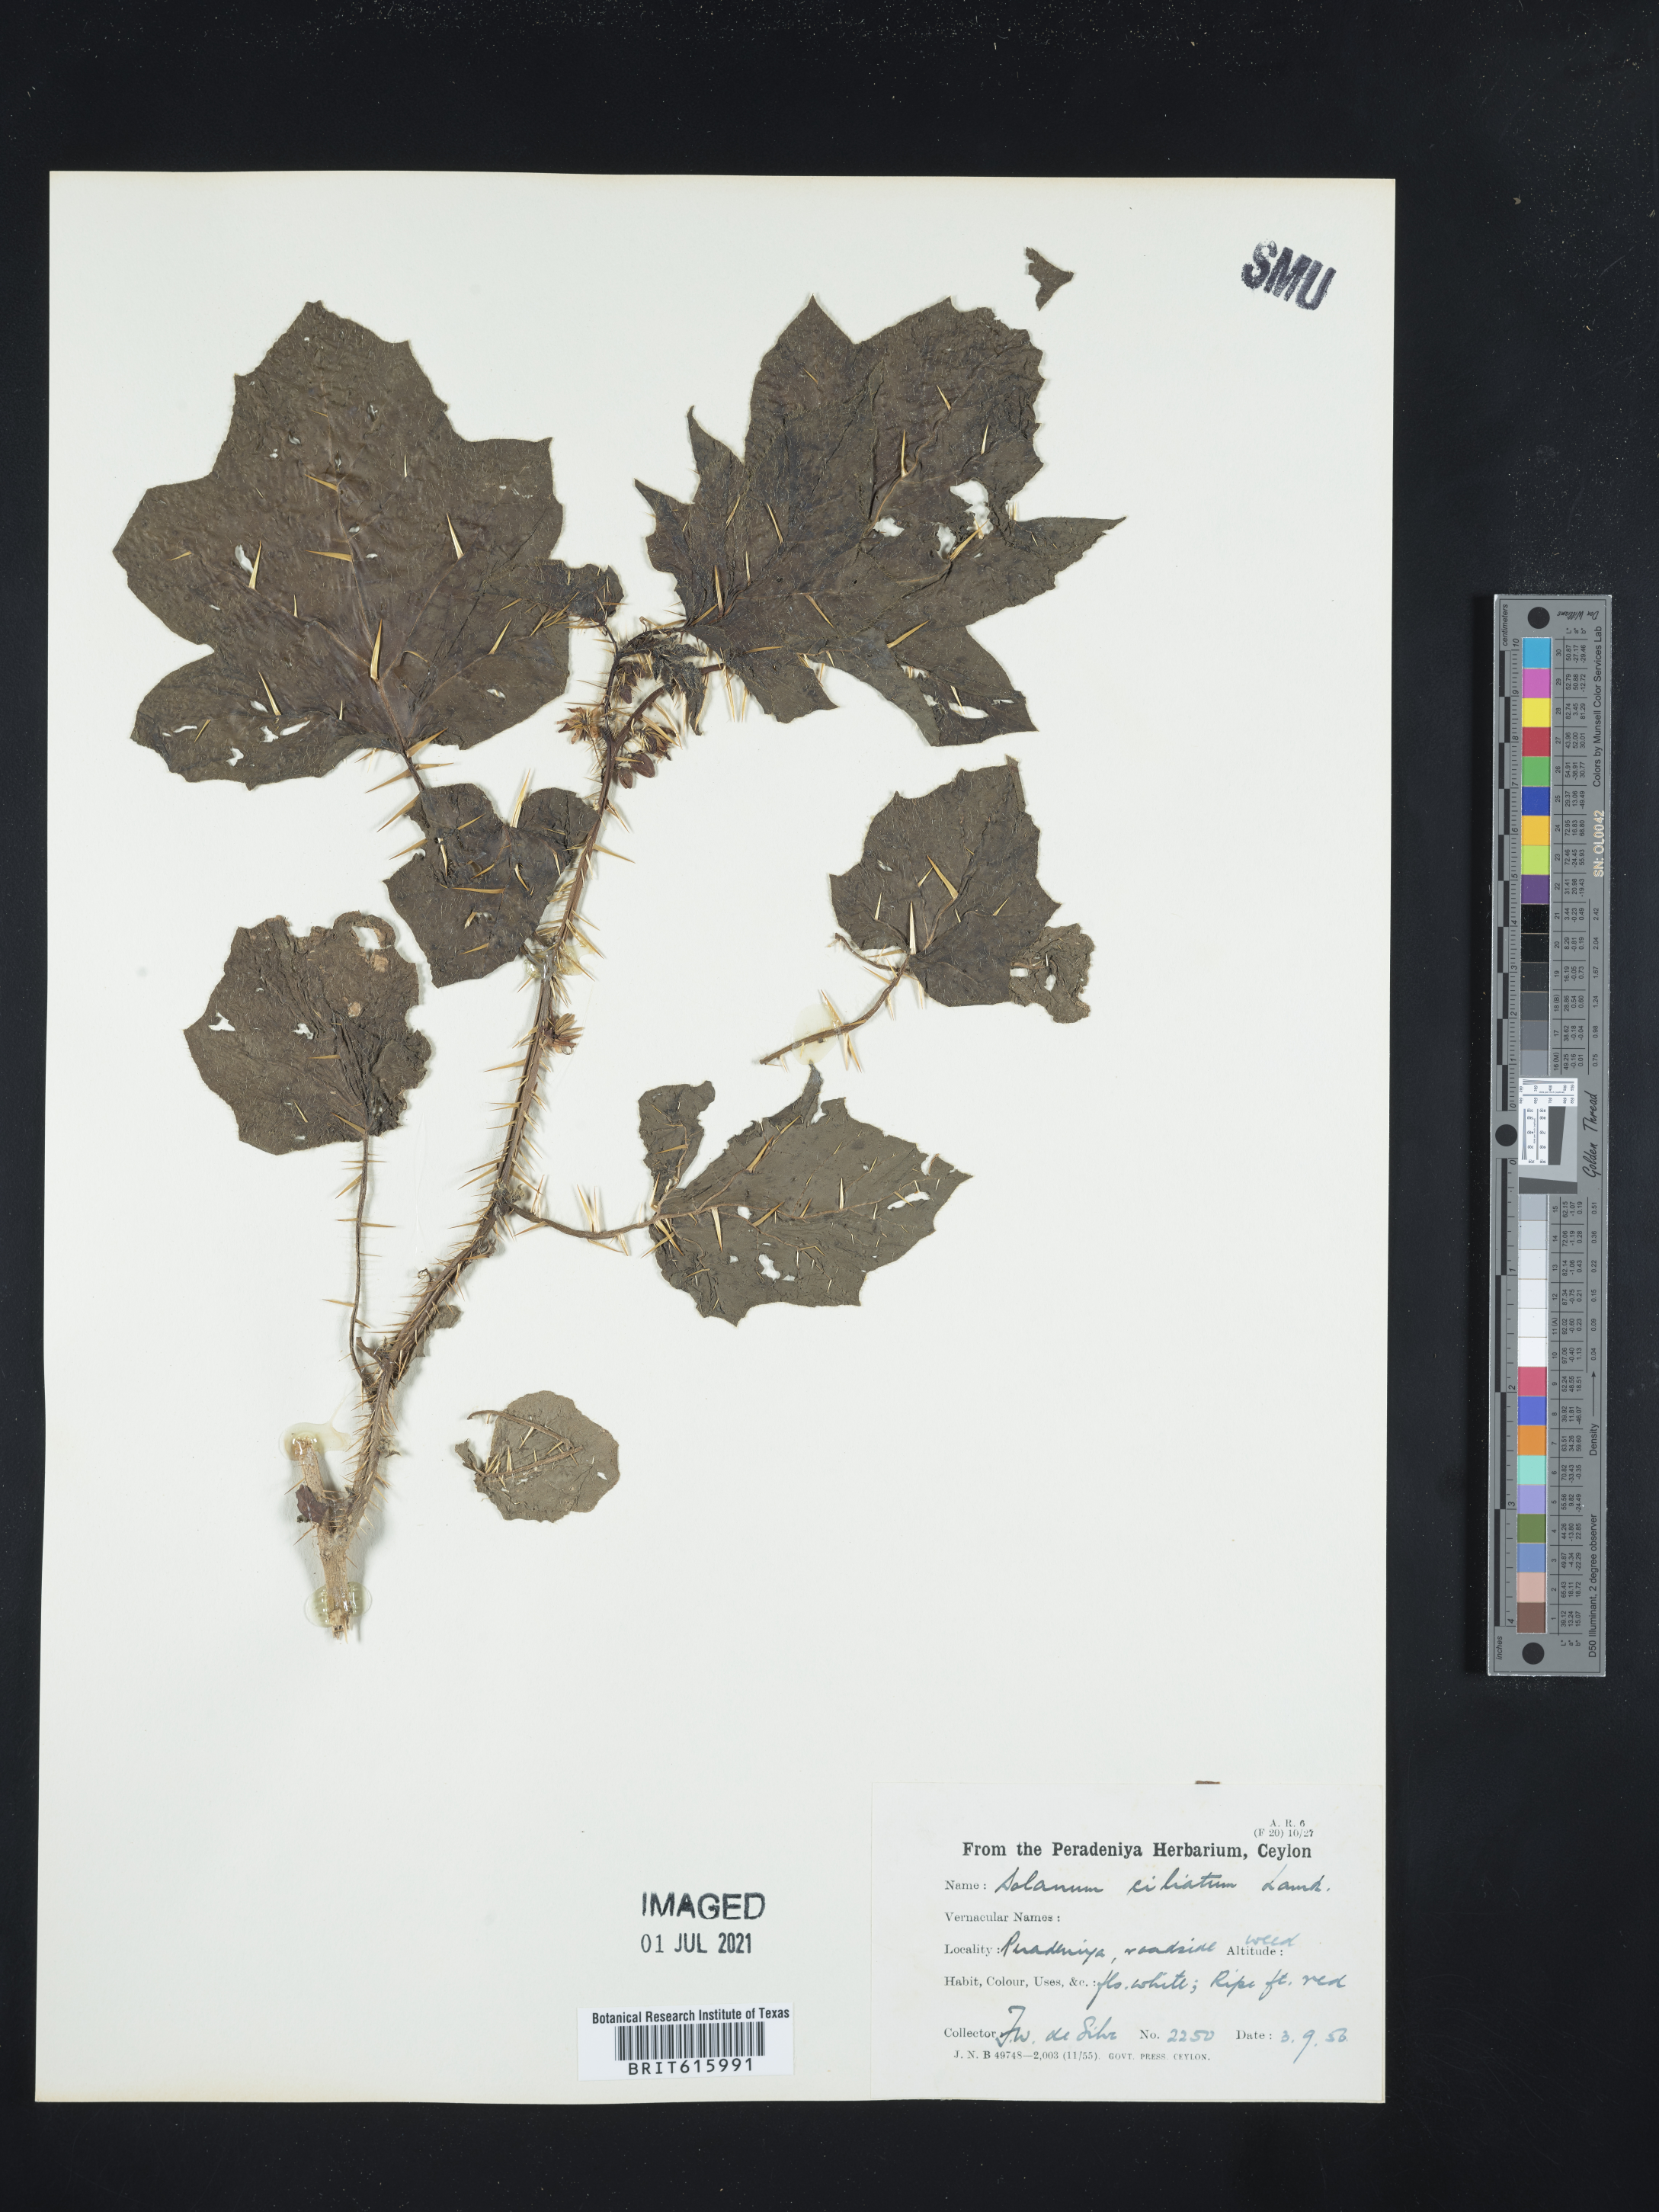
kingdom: Plantae
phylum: Tracheophyta
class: Magnoliopsida
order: Solanales
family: Solanaceae
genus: Solanum
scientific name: Solanum capsicoides
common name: Cockroach berry
